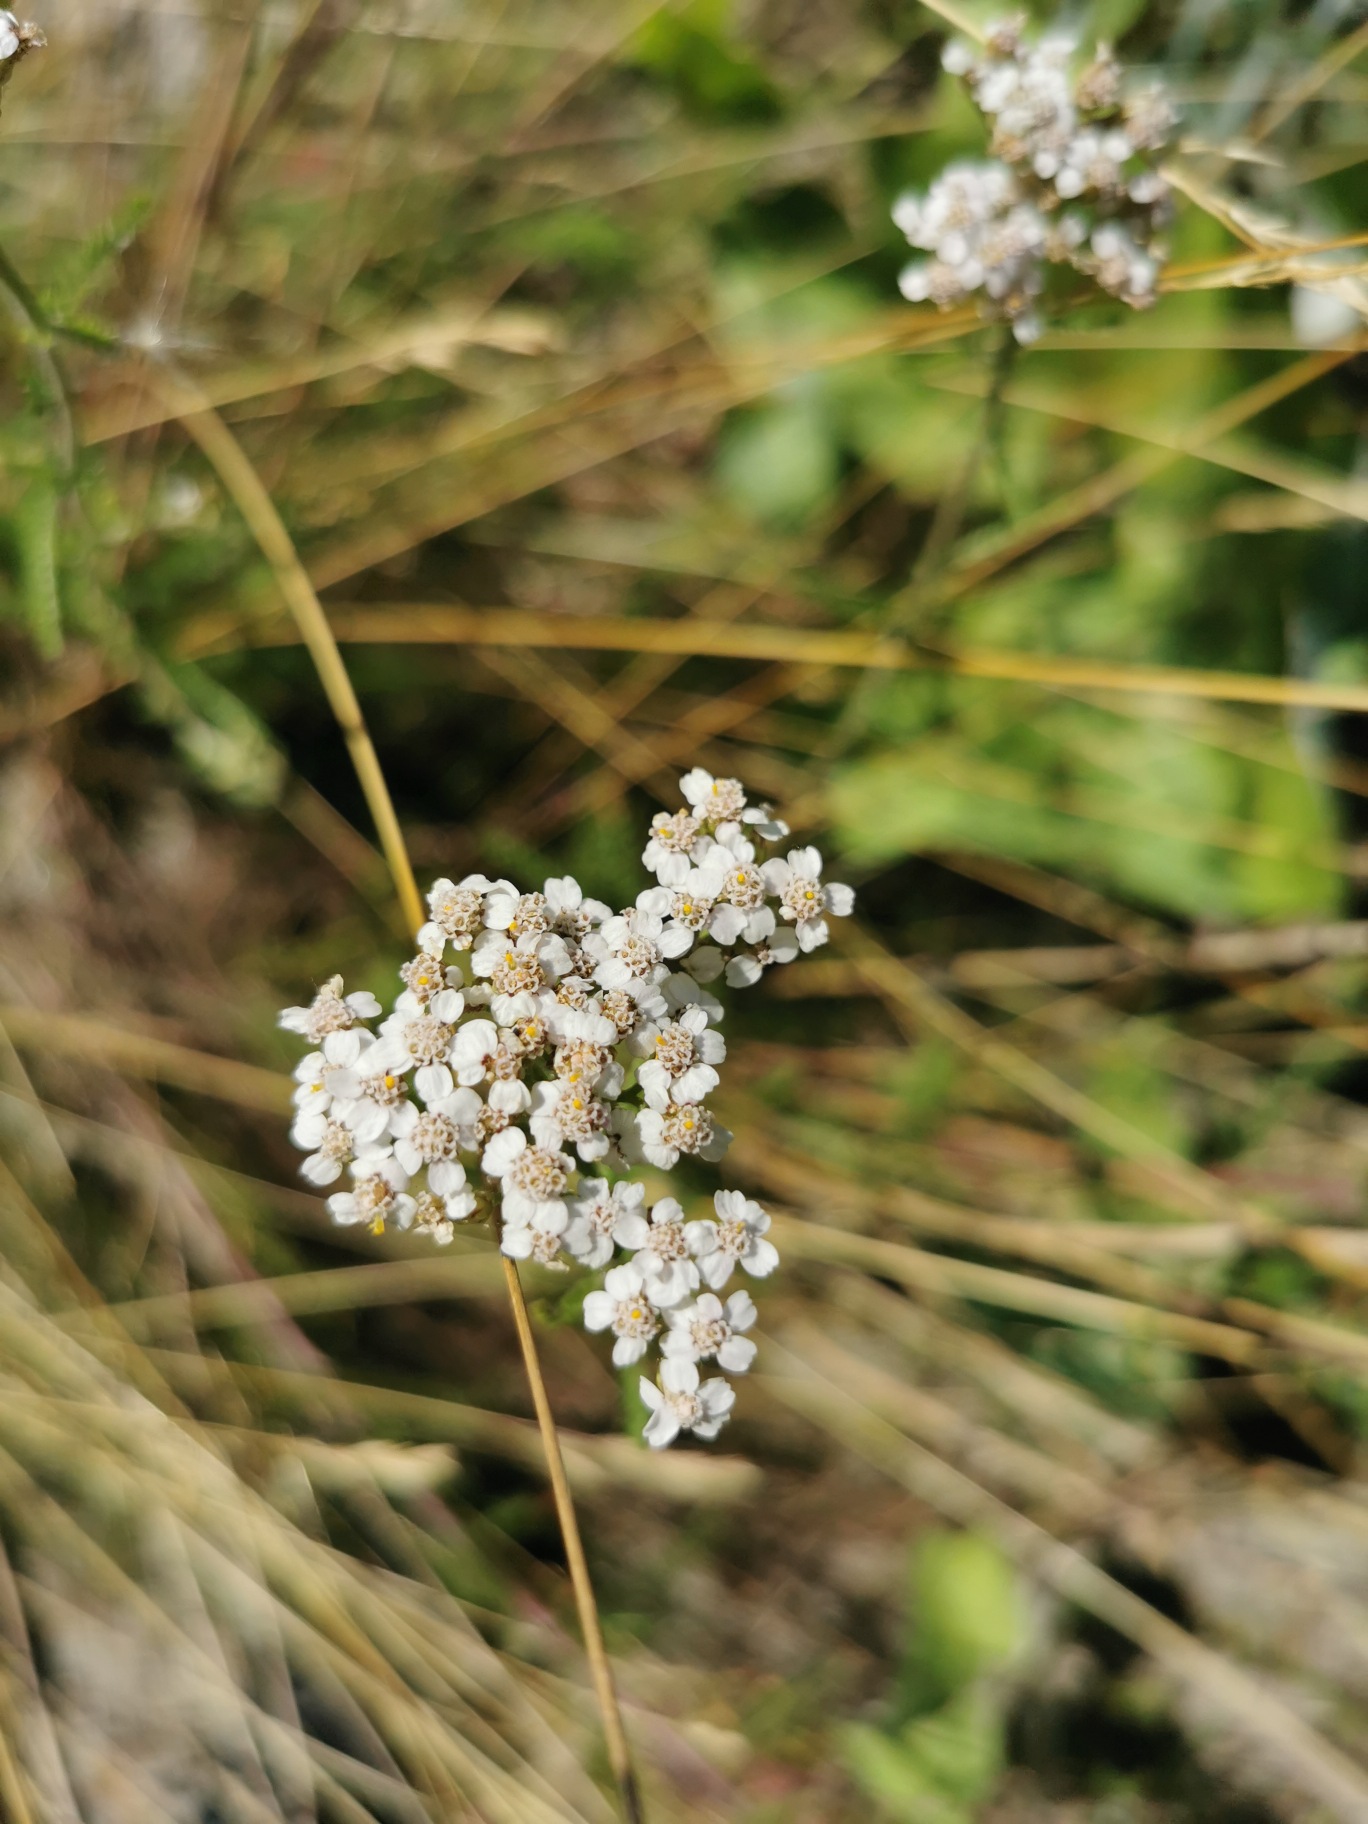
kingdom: Plantae
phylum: Tracheophyta
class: Magnoliopsida
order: Asterales
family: Asteraceae
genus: Achillea
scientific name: Achillea millefolium
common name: Almindelig røllike
